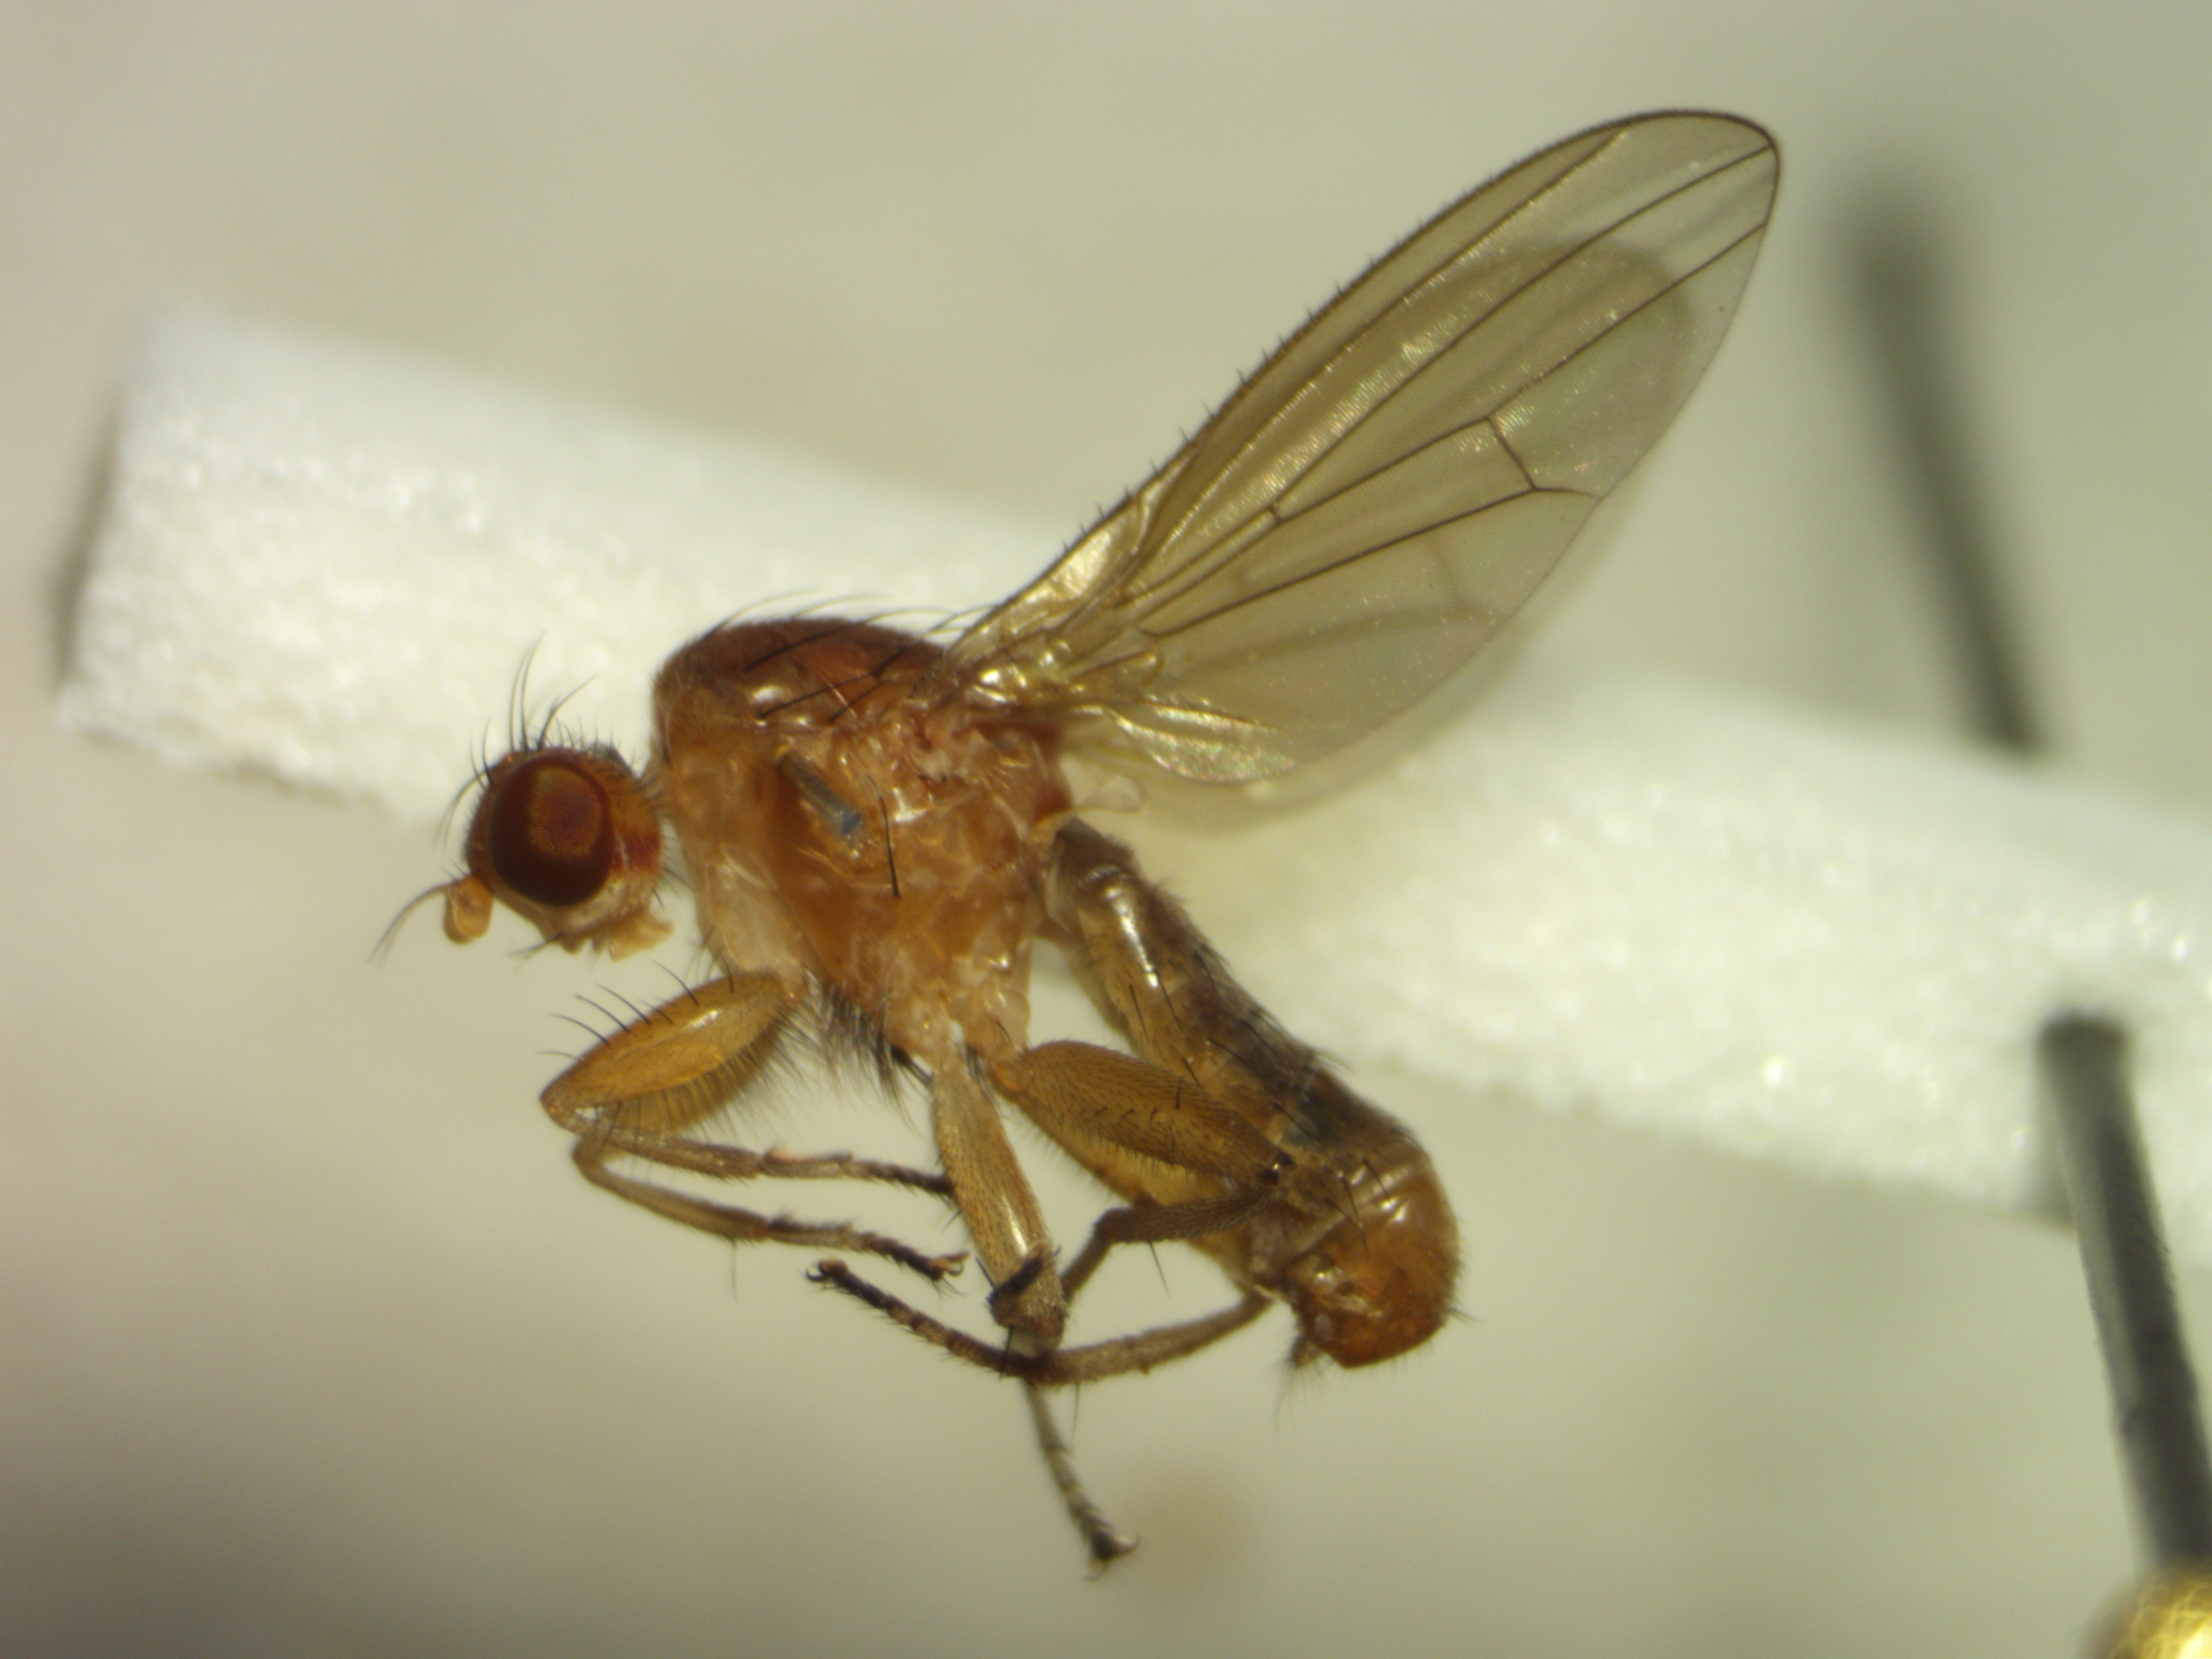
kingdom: Animalia
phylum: Arthropoda
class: Insecta
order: Diptera
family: Heleomyzidae
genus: Suillia
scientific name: Suillia bicolor
